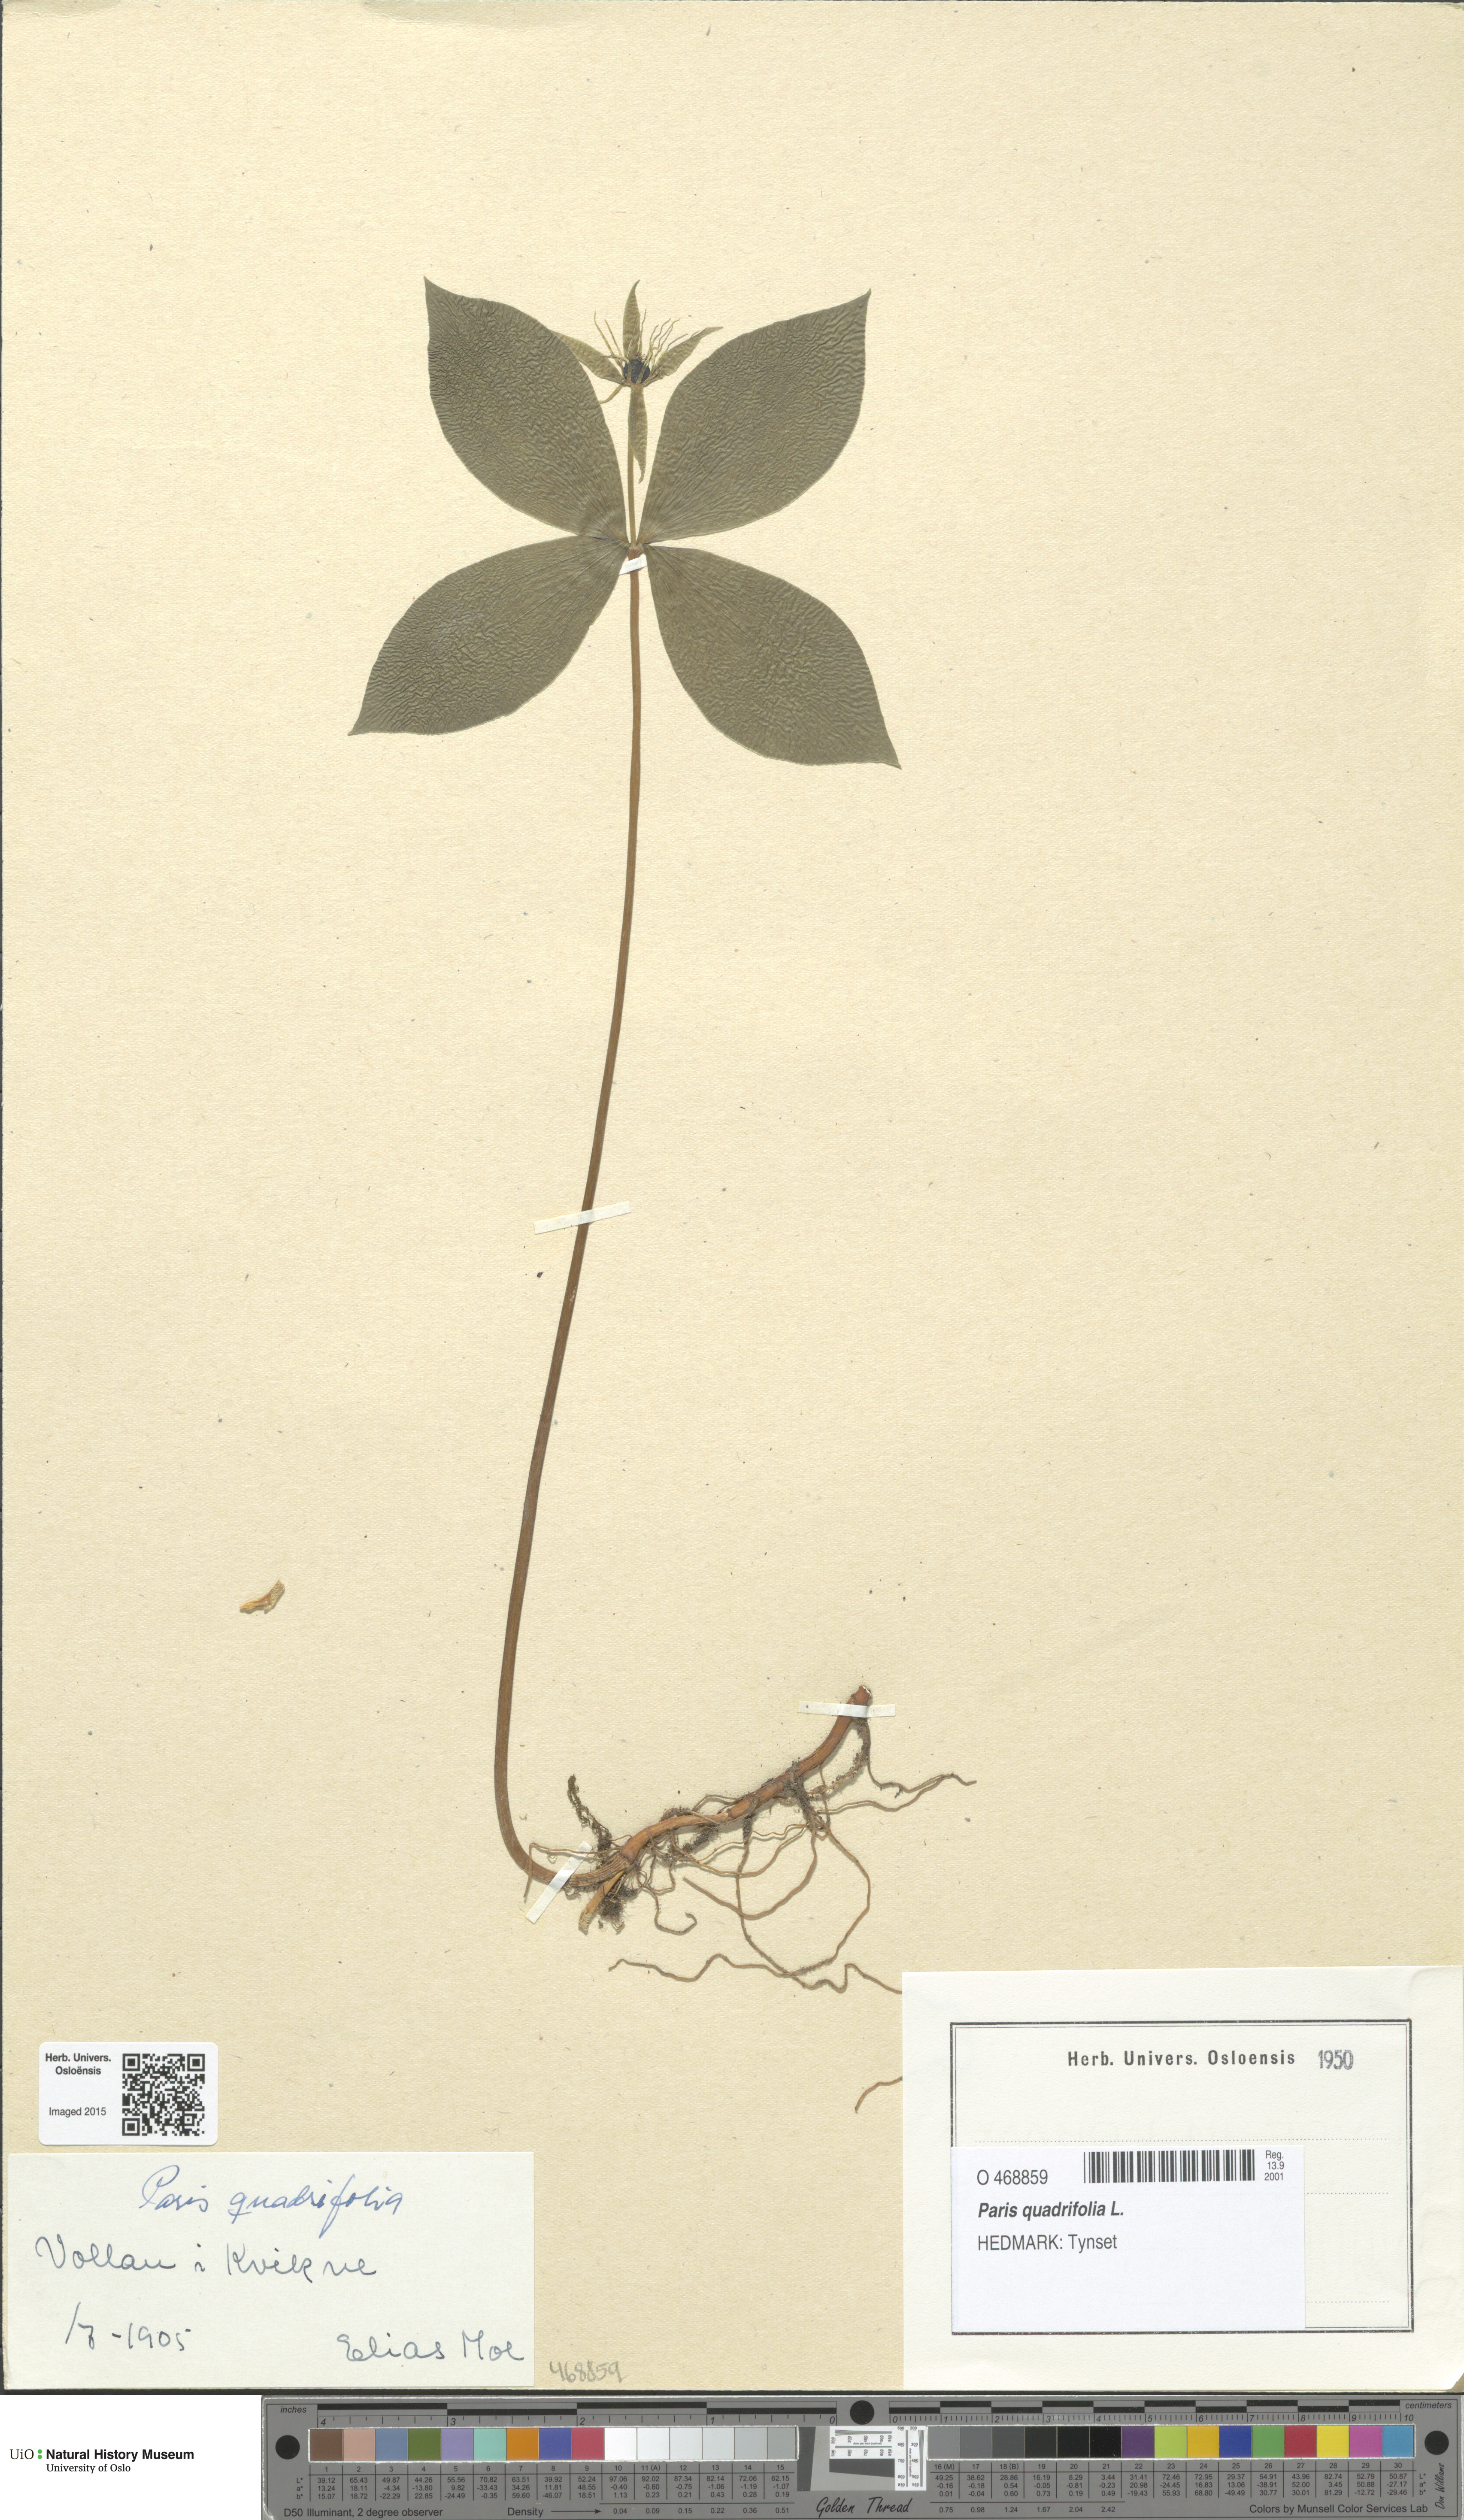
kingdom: Plantae
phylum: Tracheophyta
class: Liliopsida
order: Liliales
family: Melanthiaceae
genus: Paris
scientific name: Paris quadrifolia
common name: Herb-paris
